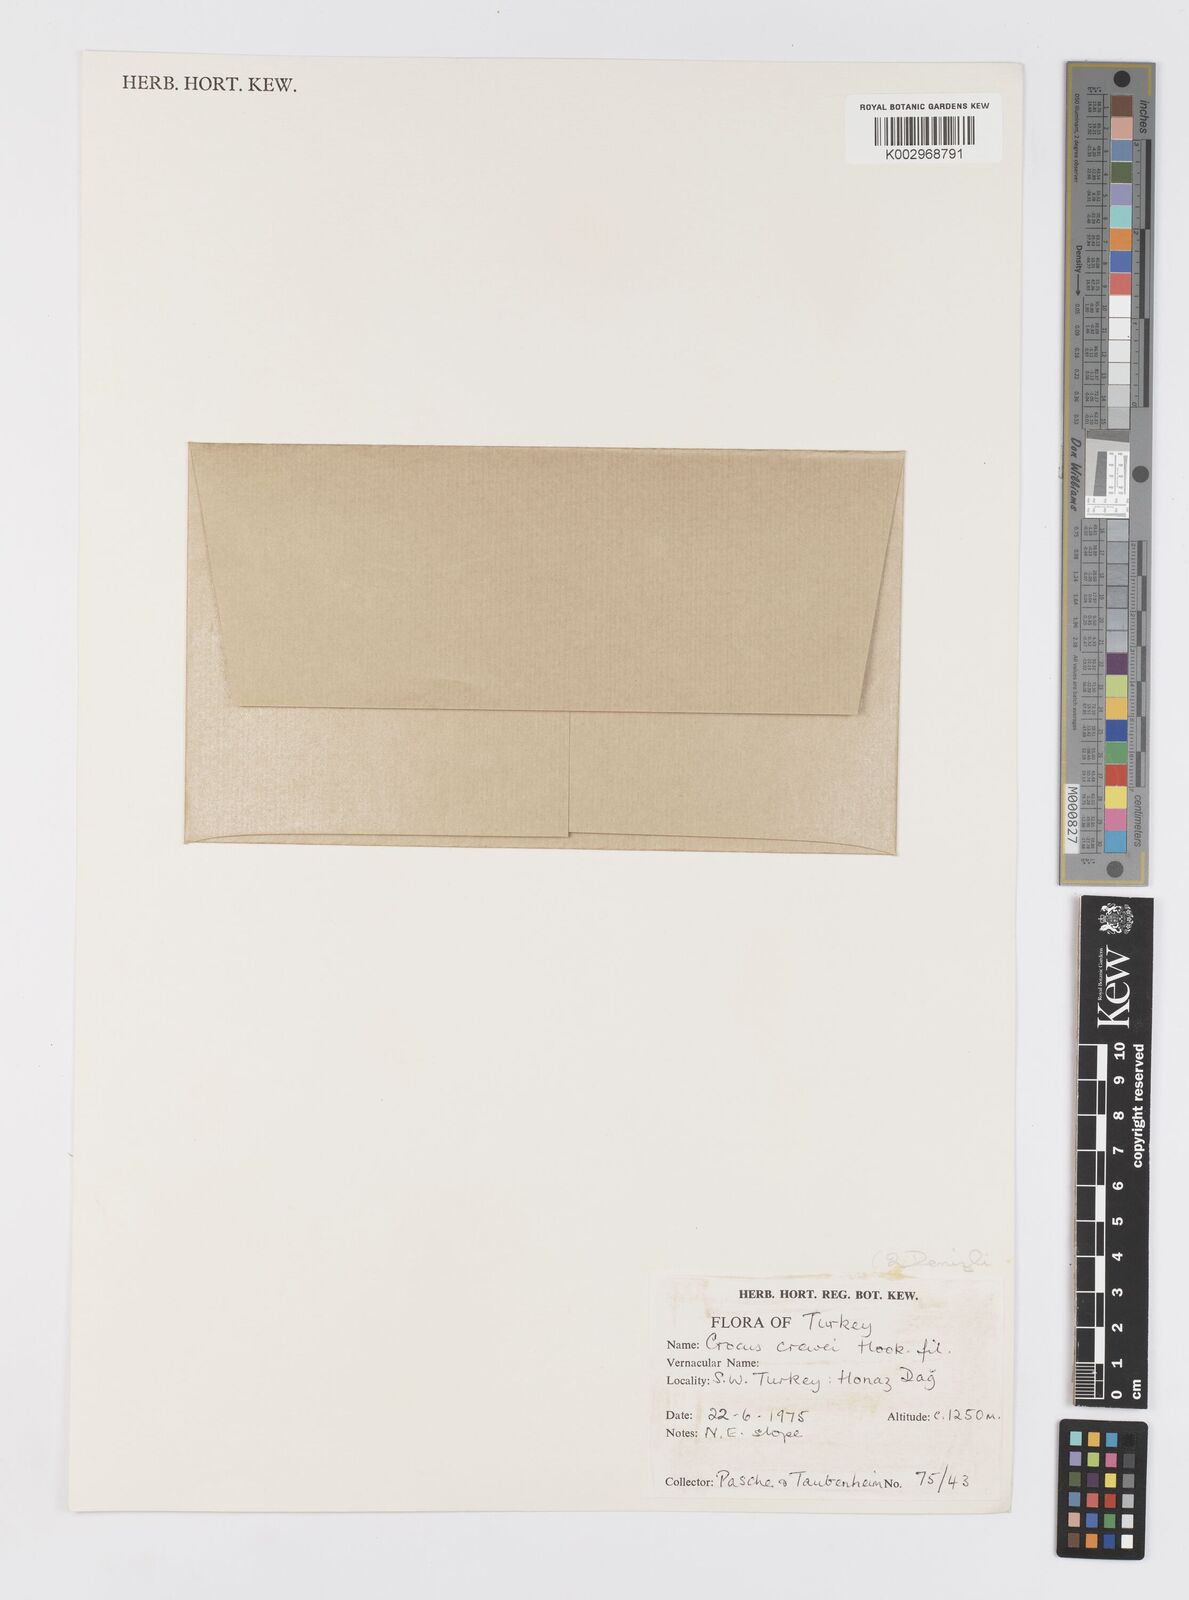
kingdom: Plantae
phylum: Tracheophyta
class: Liliopsida
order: Asparagales
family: Iridaceae
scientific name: Iridaceae
